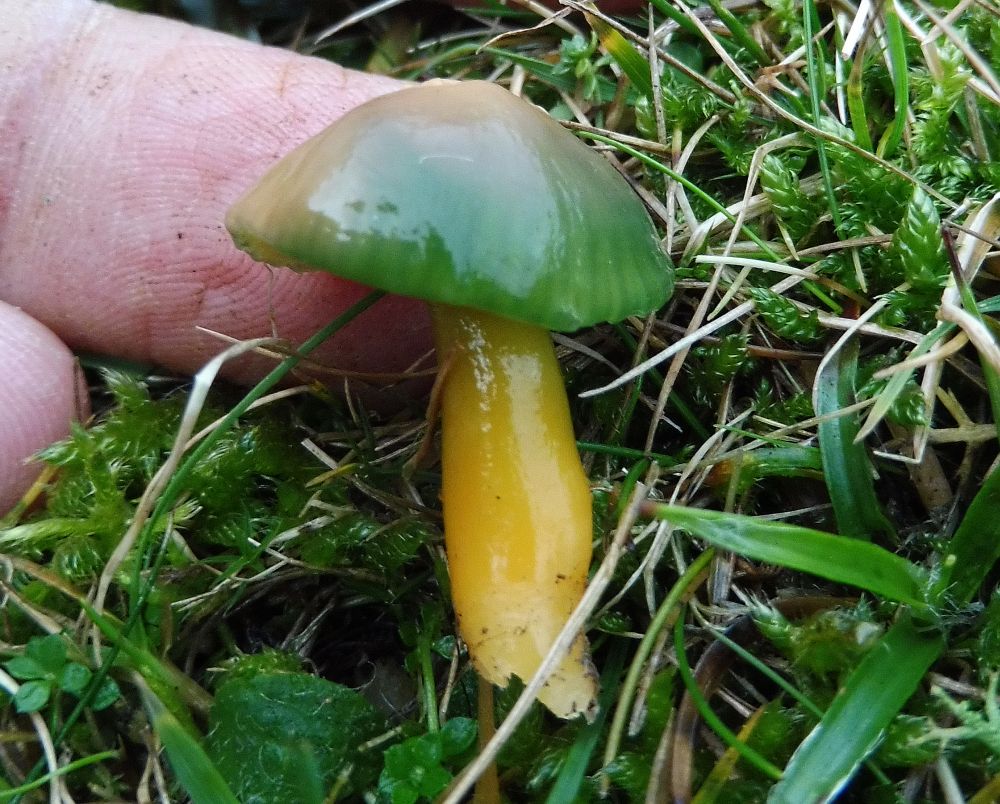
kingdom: Fungi
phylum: Basidiomycota
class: Agaricomycetes
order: Agaricales
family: Hygrophoraceae
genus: Gliophorus
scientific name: Gliophorus psittacinus
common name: papegøje-vokshat
